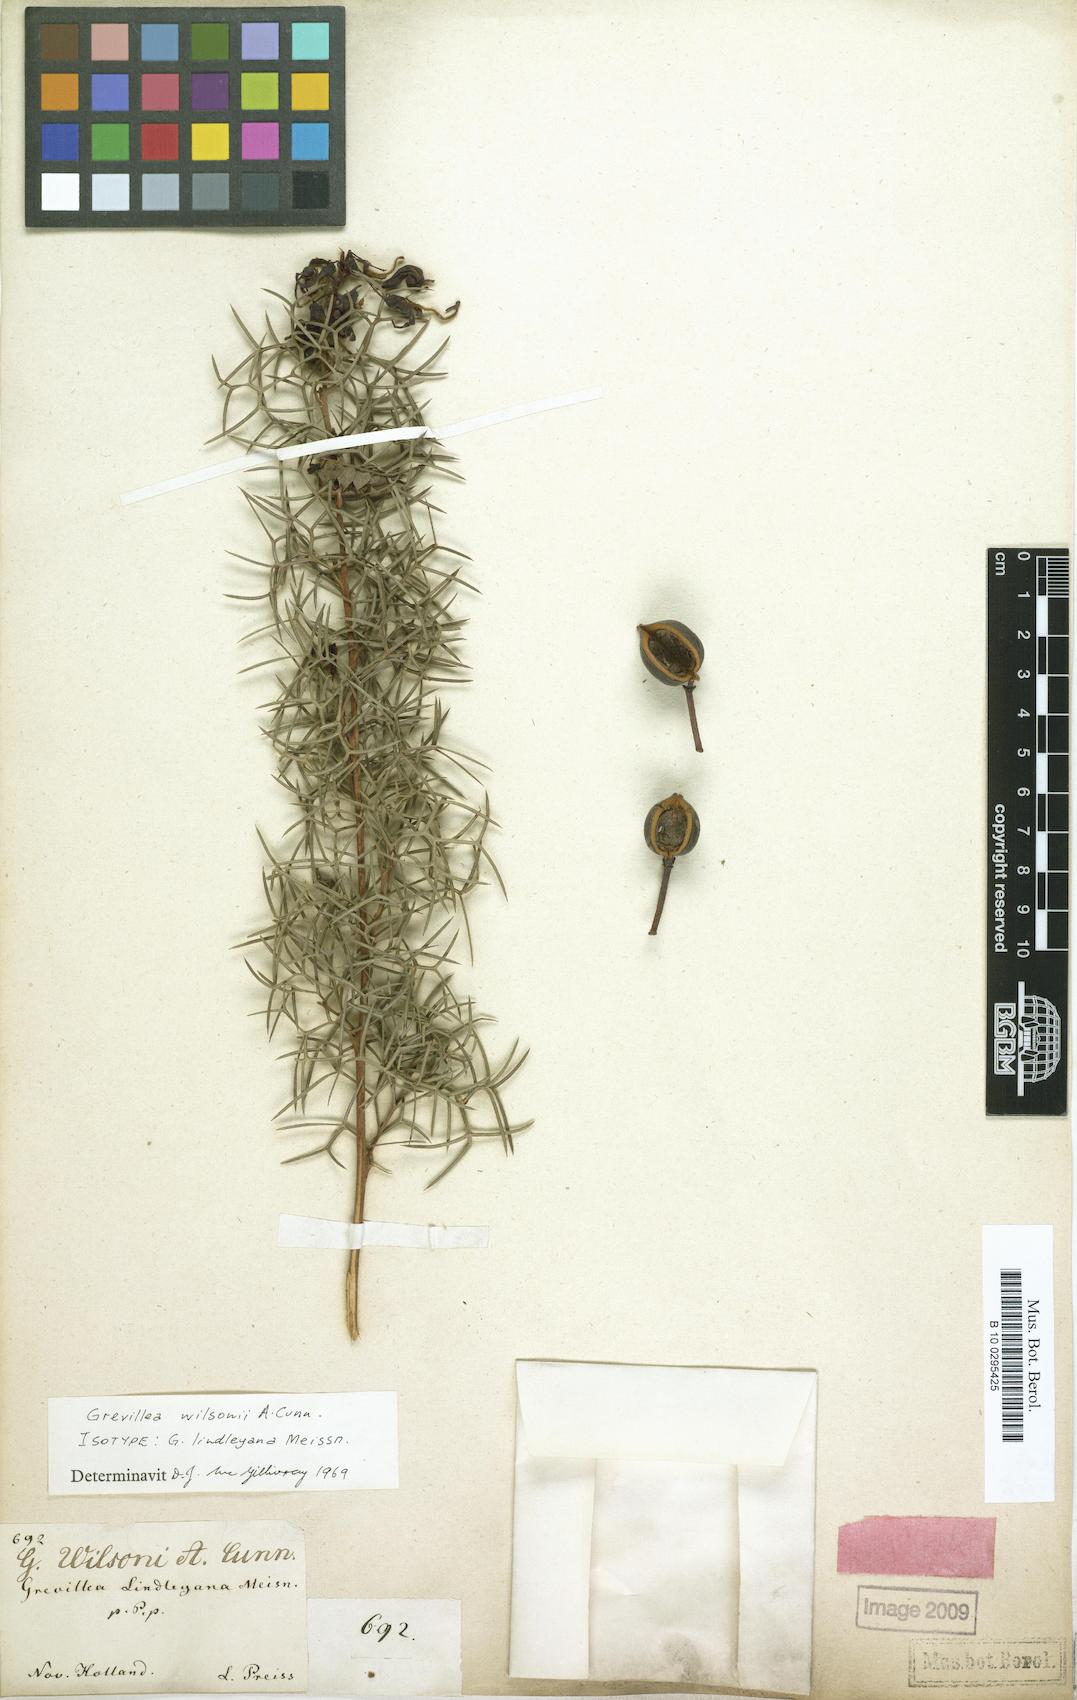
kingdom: Plantae
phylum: Tracheophyta
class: Magnoliopsida
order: Proteales
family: Proteaceae
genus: Grevillea
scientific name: Grevillea wilsonii
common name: Fire-wheel
